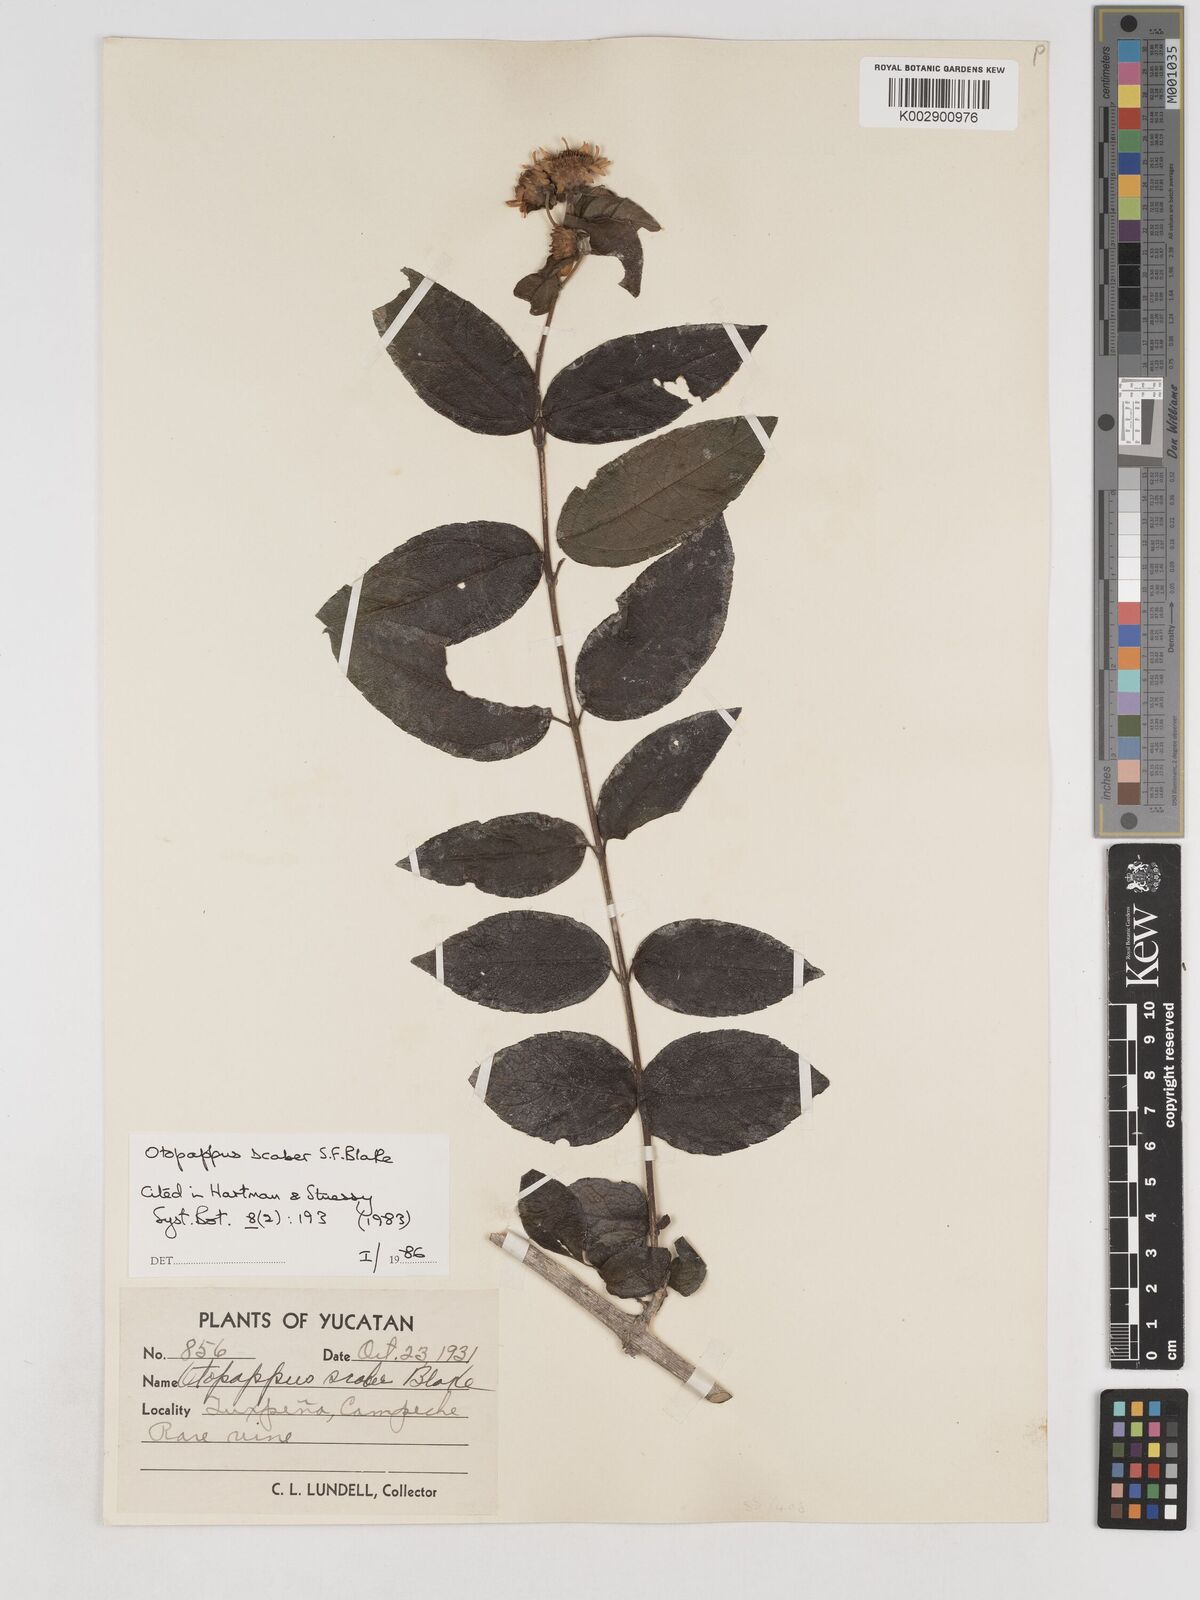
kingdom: Plantae
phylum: Tracheophyta
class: Magnoliopsida
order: Asterales
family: Asteraceae
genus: Otopappus
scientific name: Otopappus verbesinoides
